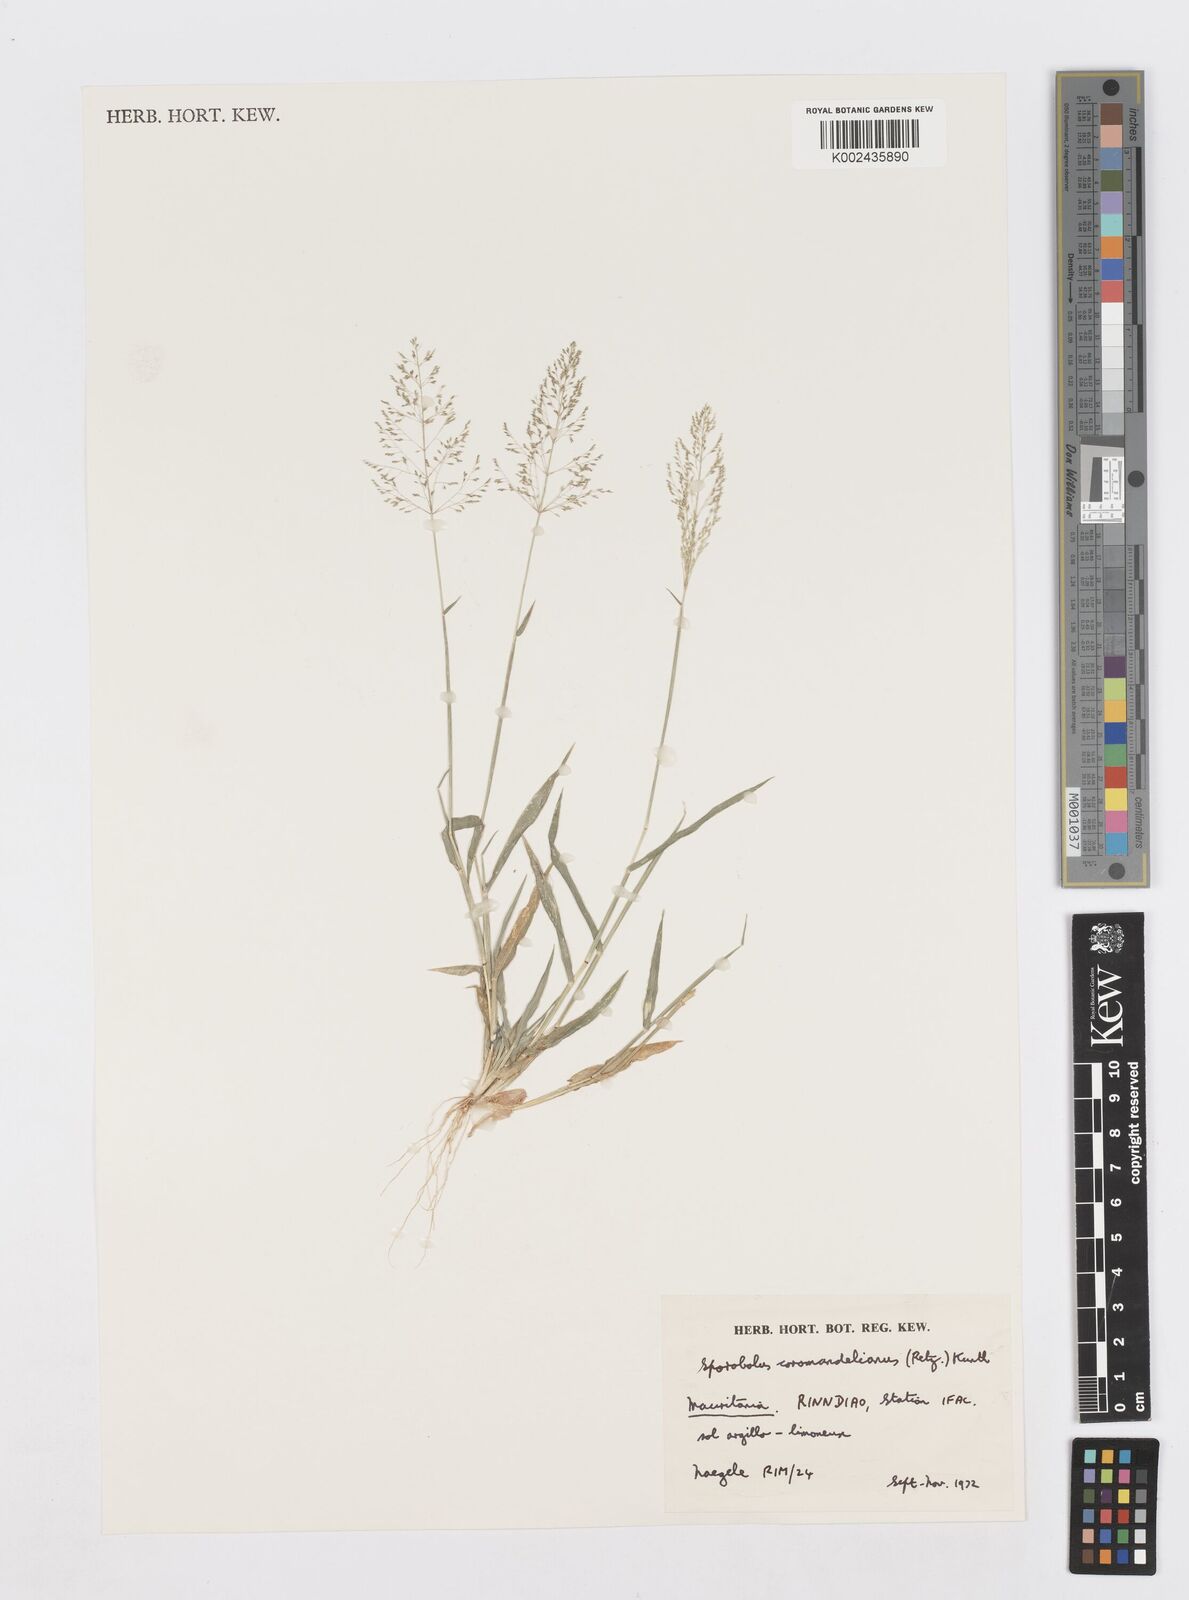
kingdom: Plantae
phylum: Tracheophyta
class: Liliopsida
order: Poales
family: Poaceae
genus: Sporobolus
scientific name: Sporobolus coromandelianus
